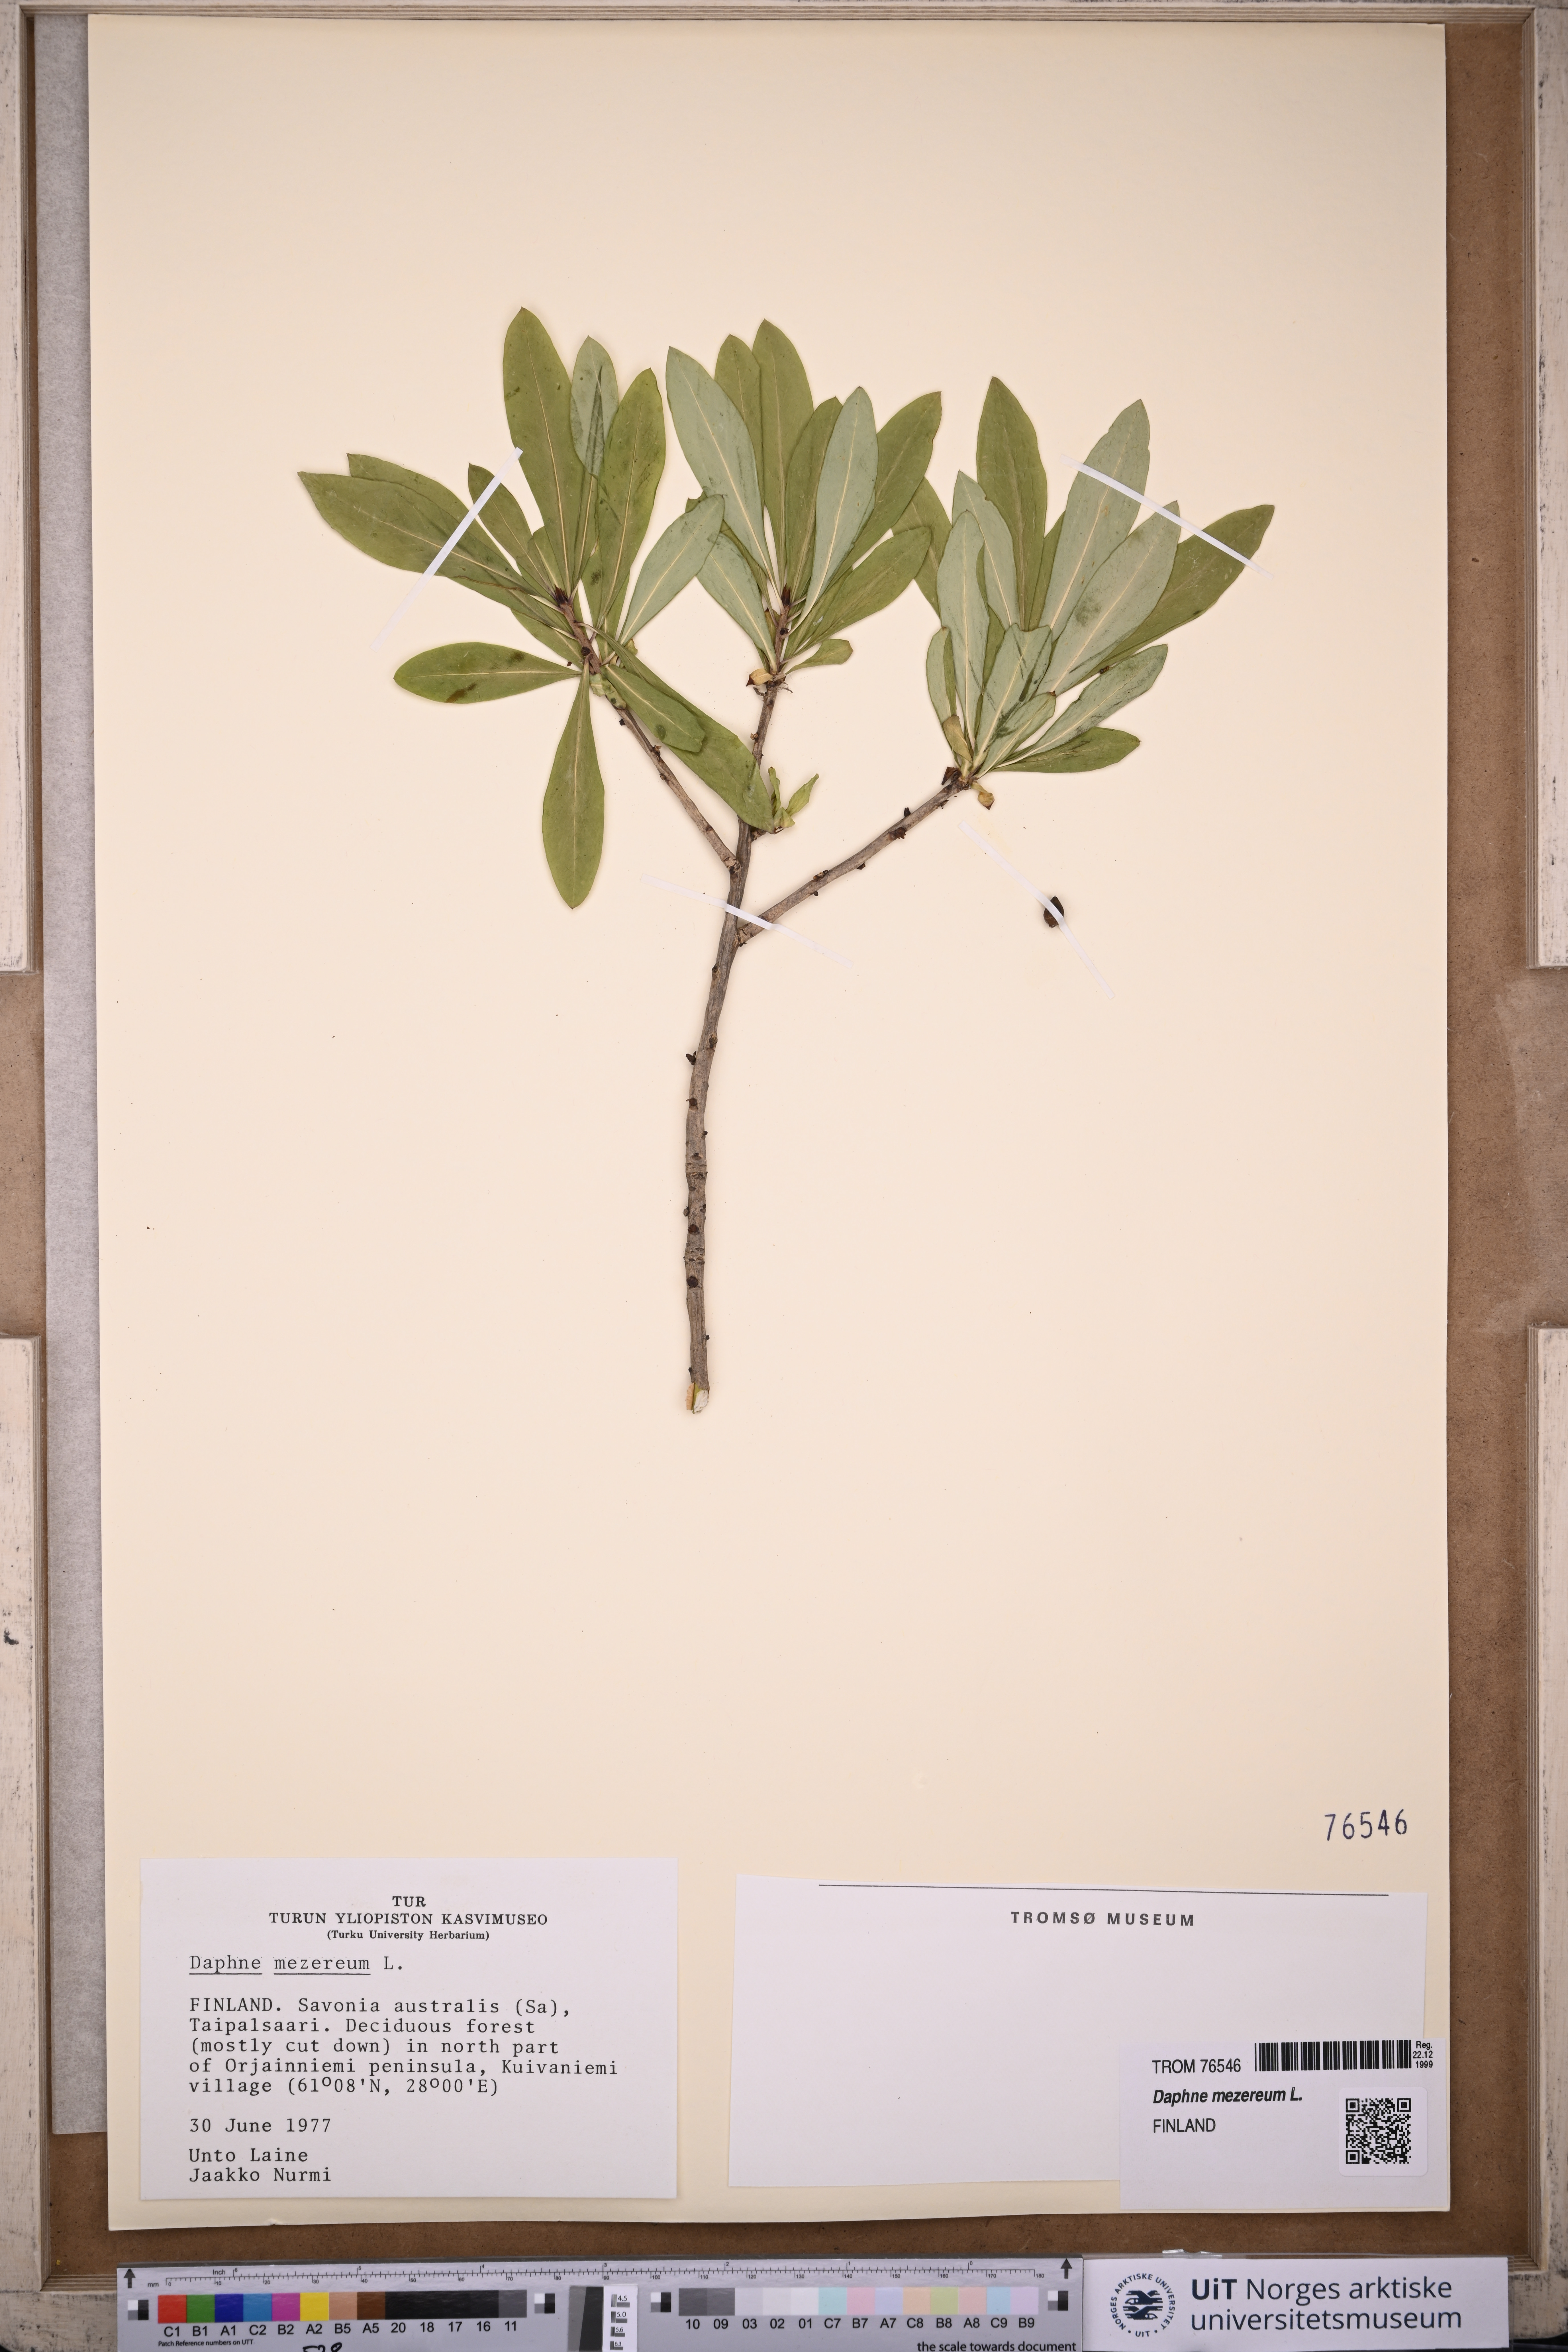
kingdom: Plantae
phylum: Tracheophyta
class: Magnoliopsida
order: Malvales
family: Thymelaeaceae
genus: Daphne
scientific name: Daphne mezereum
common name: Mezereon
